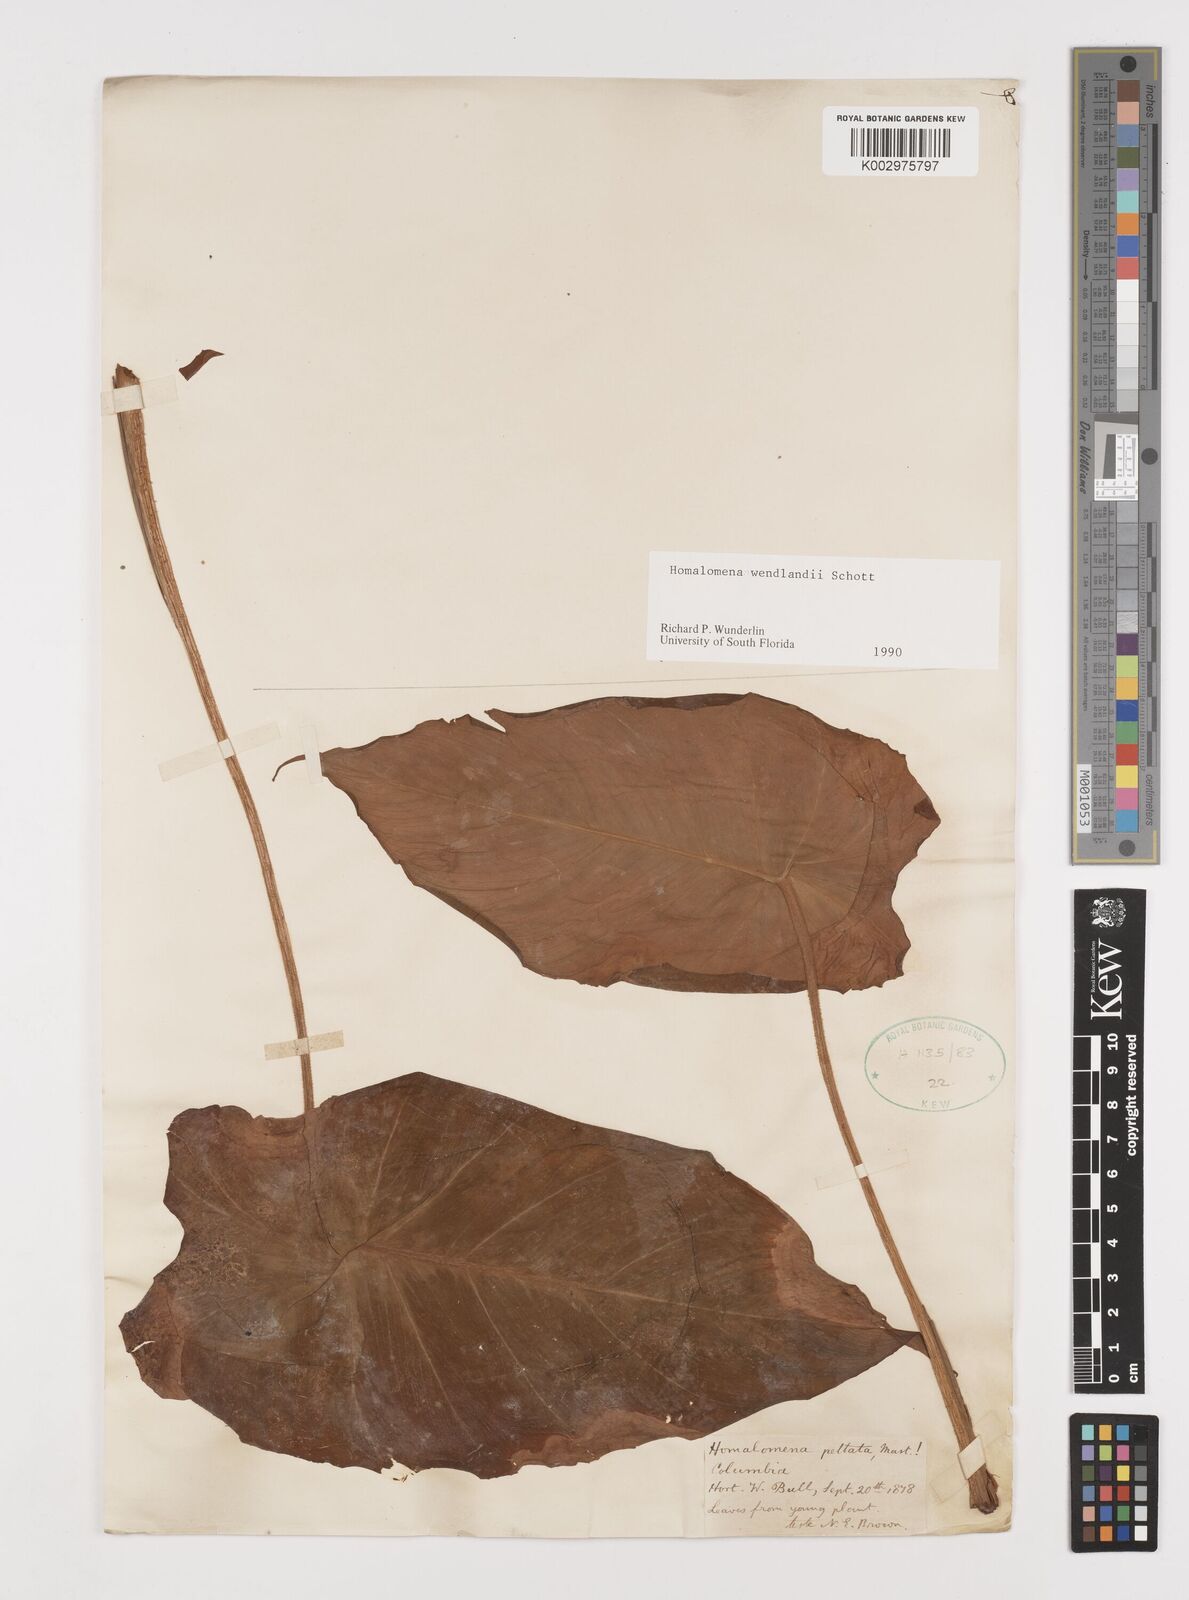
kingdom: Plantae
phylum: Tracheophyta
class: Liliopsida
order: Alismatales
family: Araceae
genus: Adelonema
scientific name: Adelonema wendlandii
